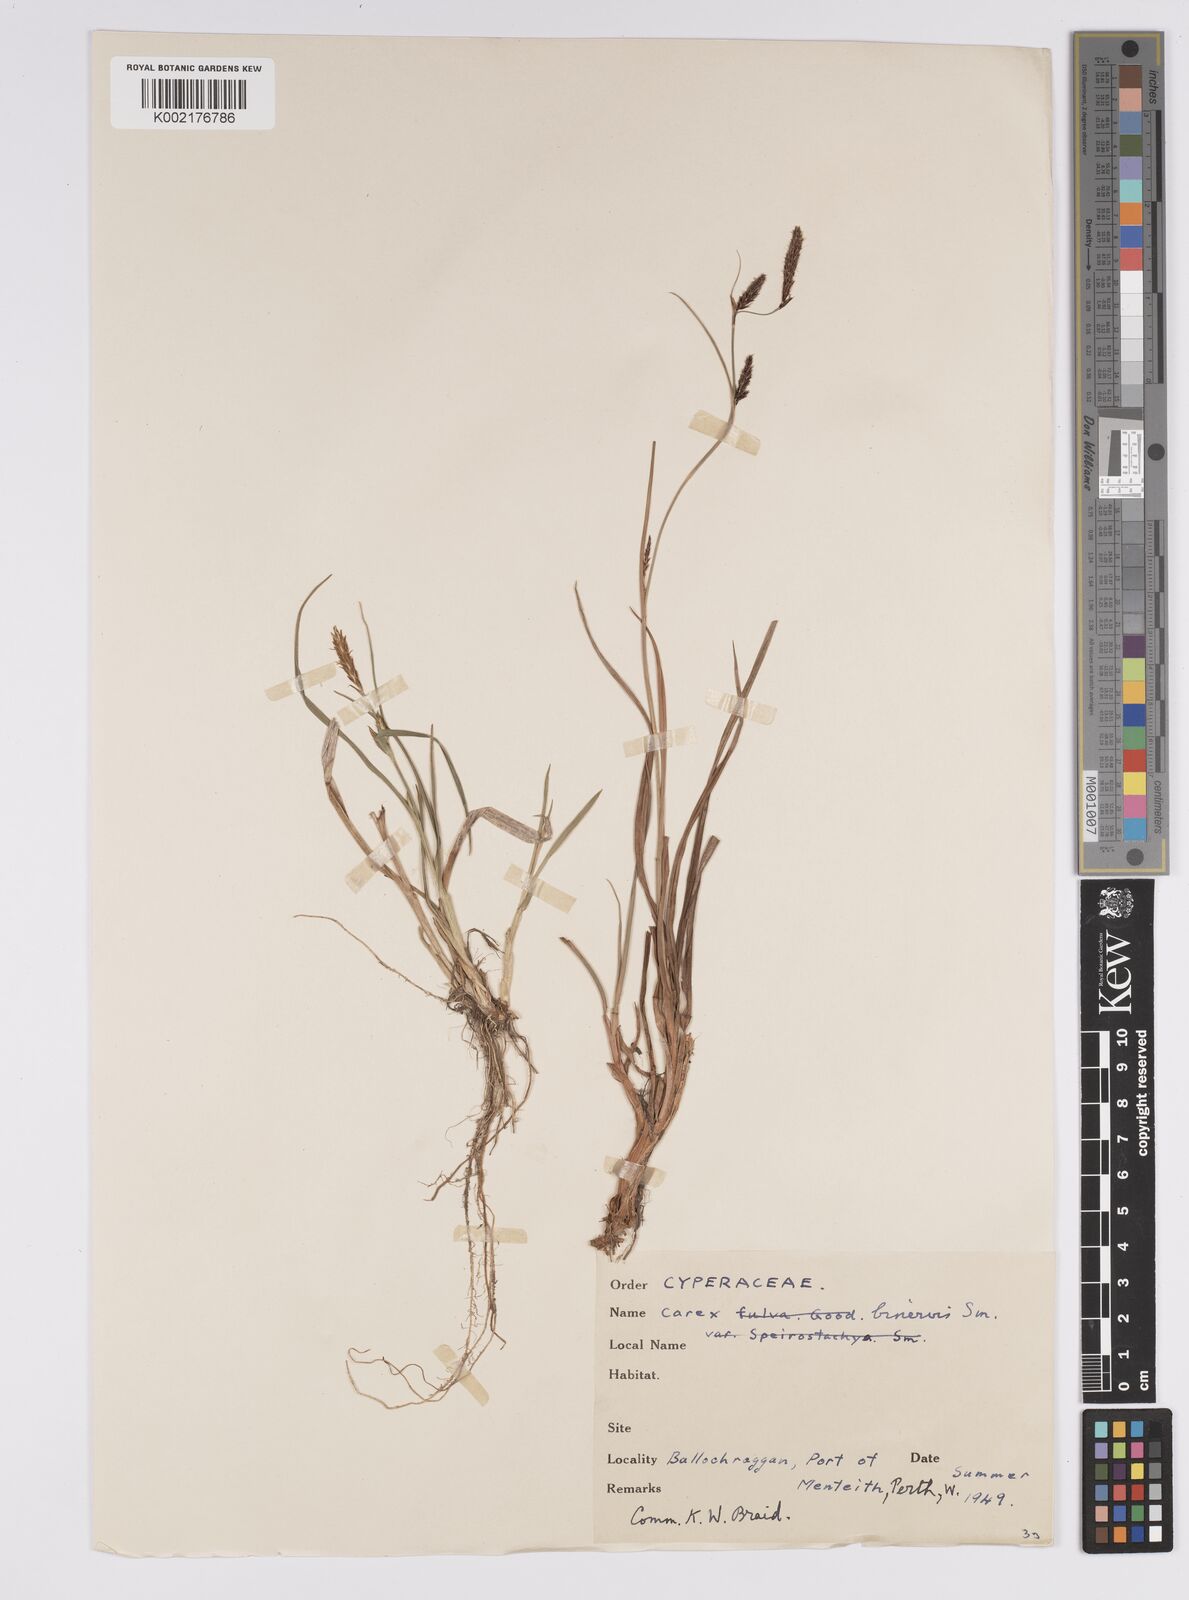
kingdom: Plantae
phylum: Tracheophyta
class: Liliopsida
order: Poales
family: Cyperaceae
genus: Carex
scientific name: Carex binervis
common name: Green-ribbed sedge
